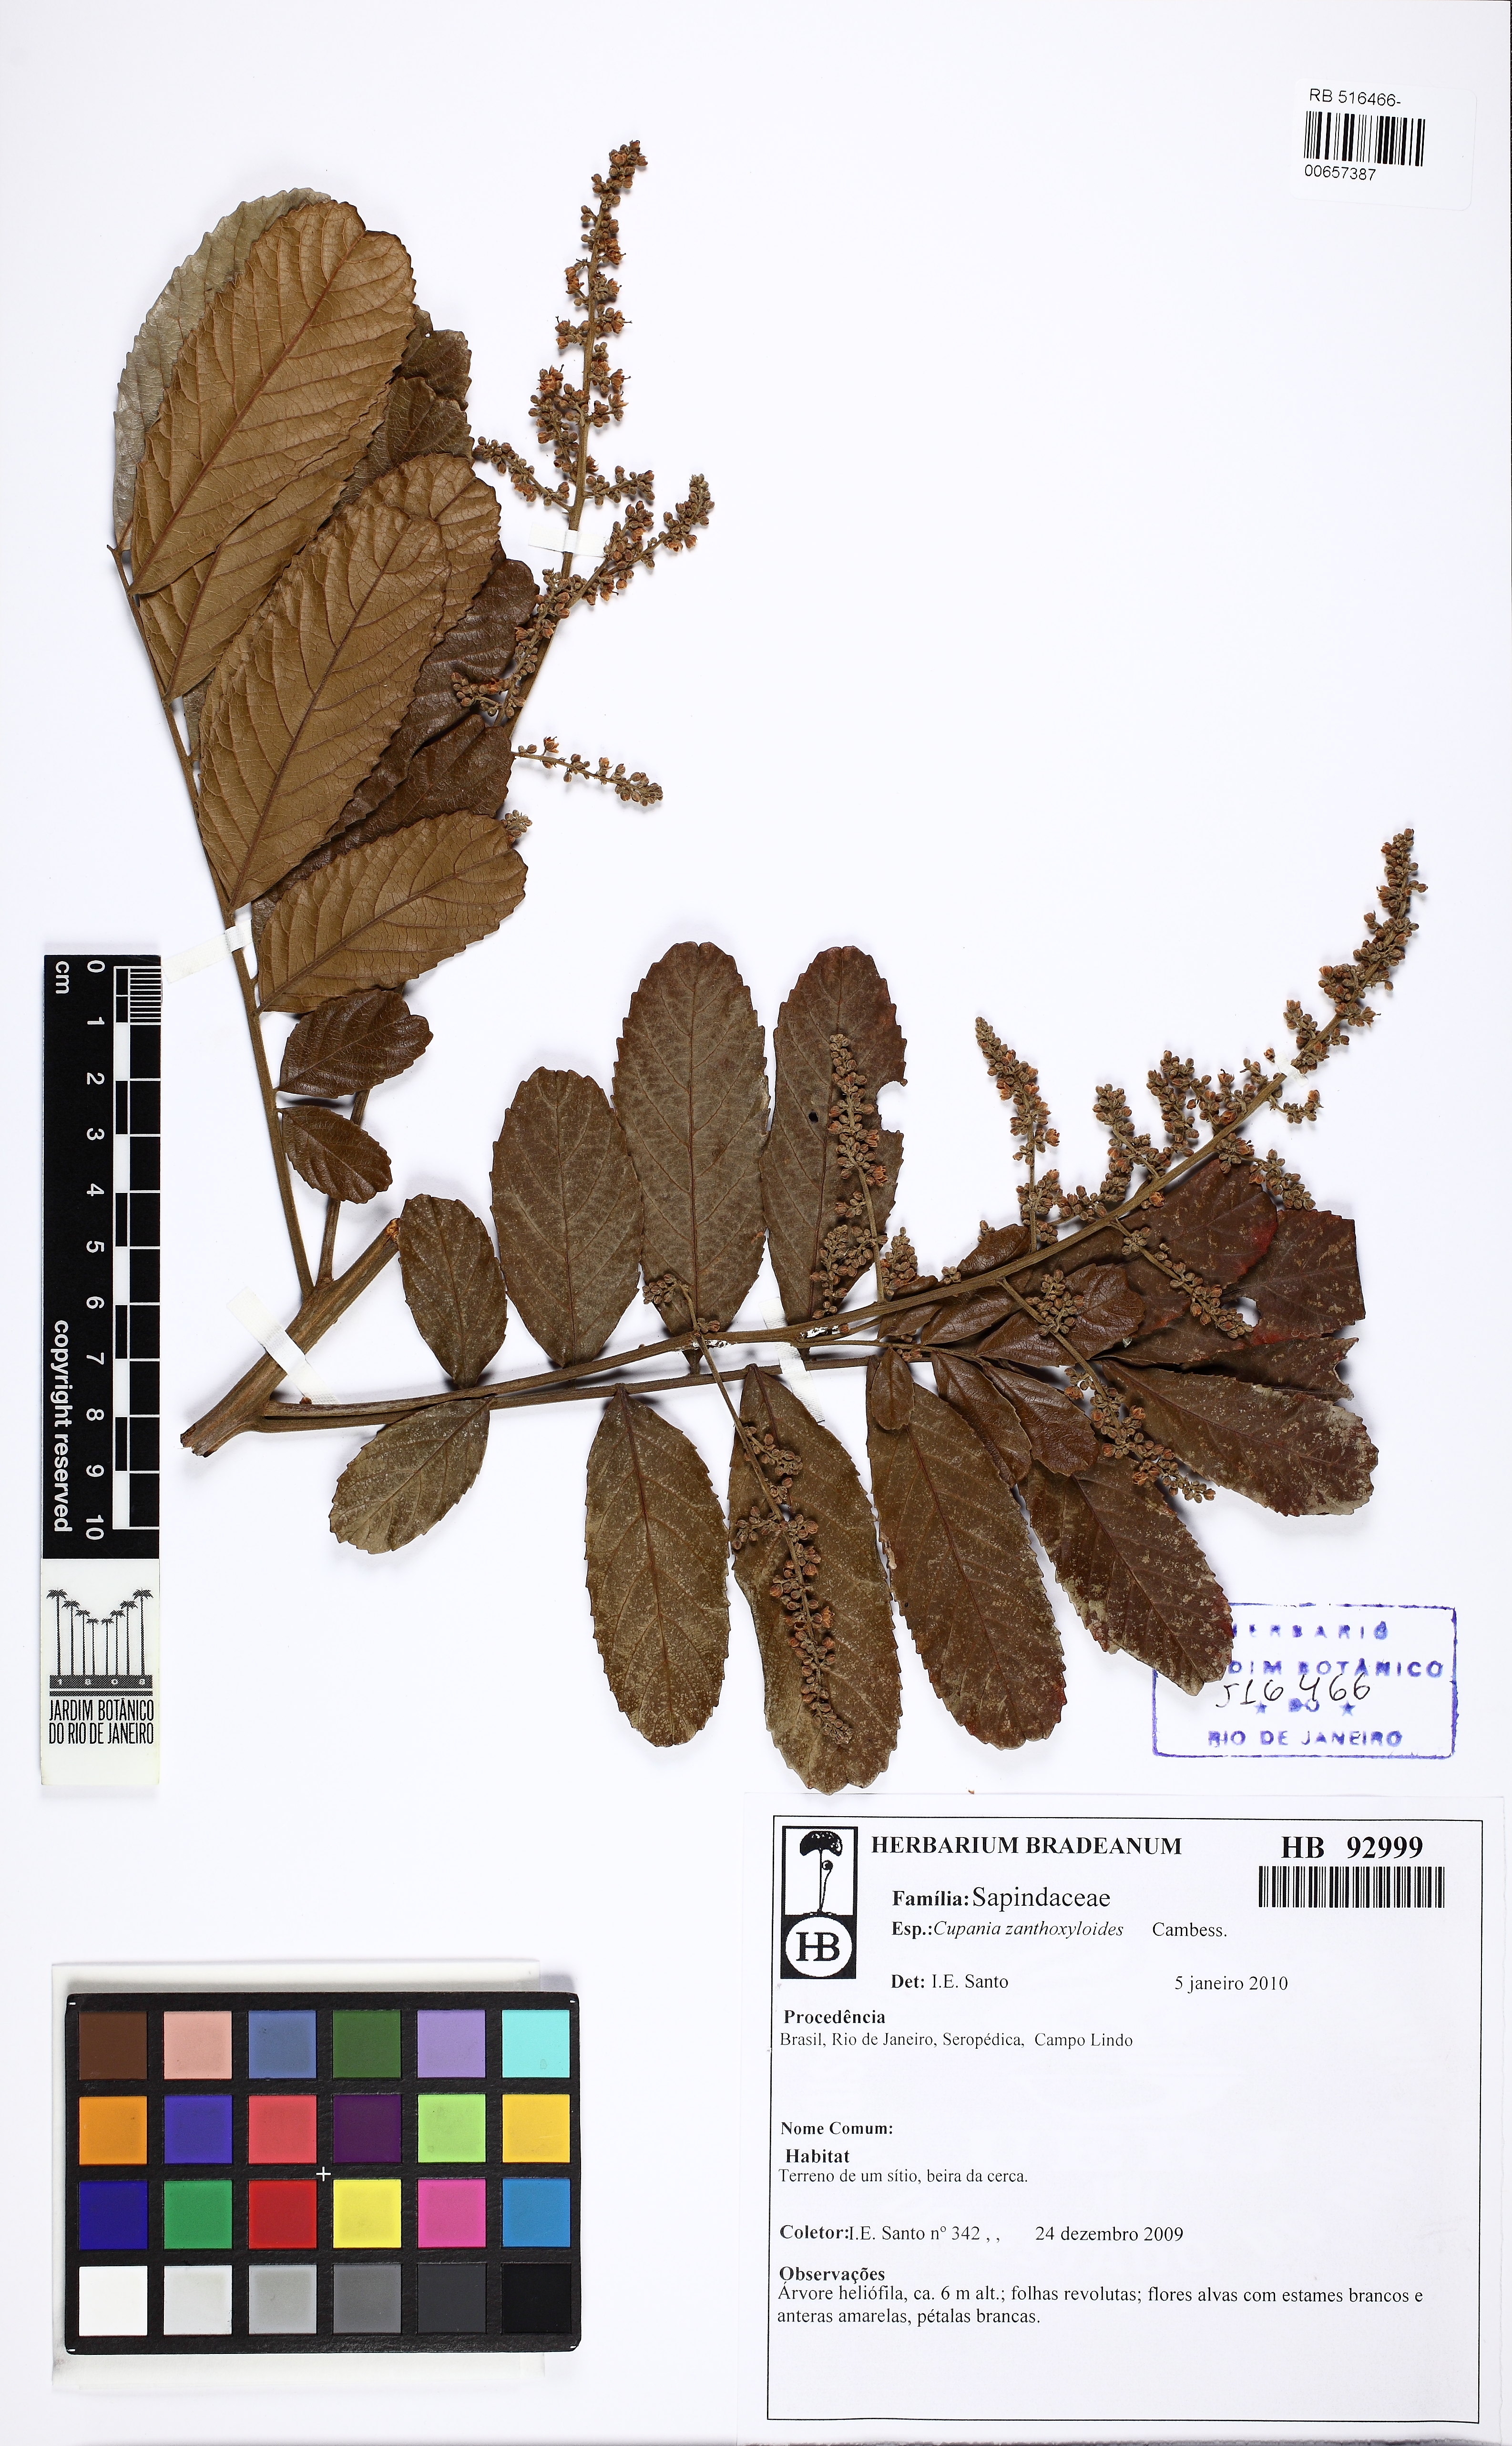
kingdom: Plantae
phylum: Tracheophyta
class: Magnoliopsida
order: Sapindales
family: Sapindaceae
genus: Cupania
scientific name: Cupania zanthoxyloides
